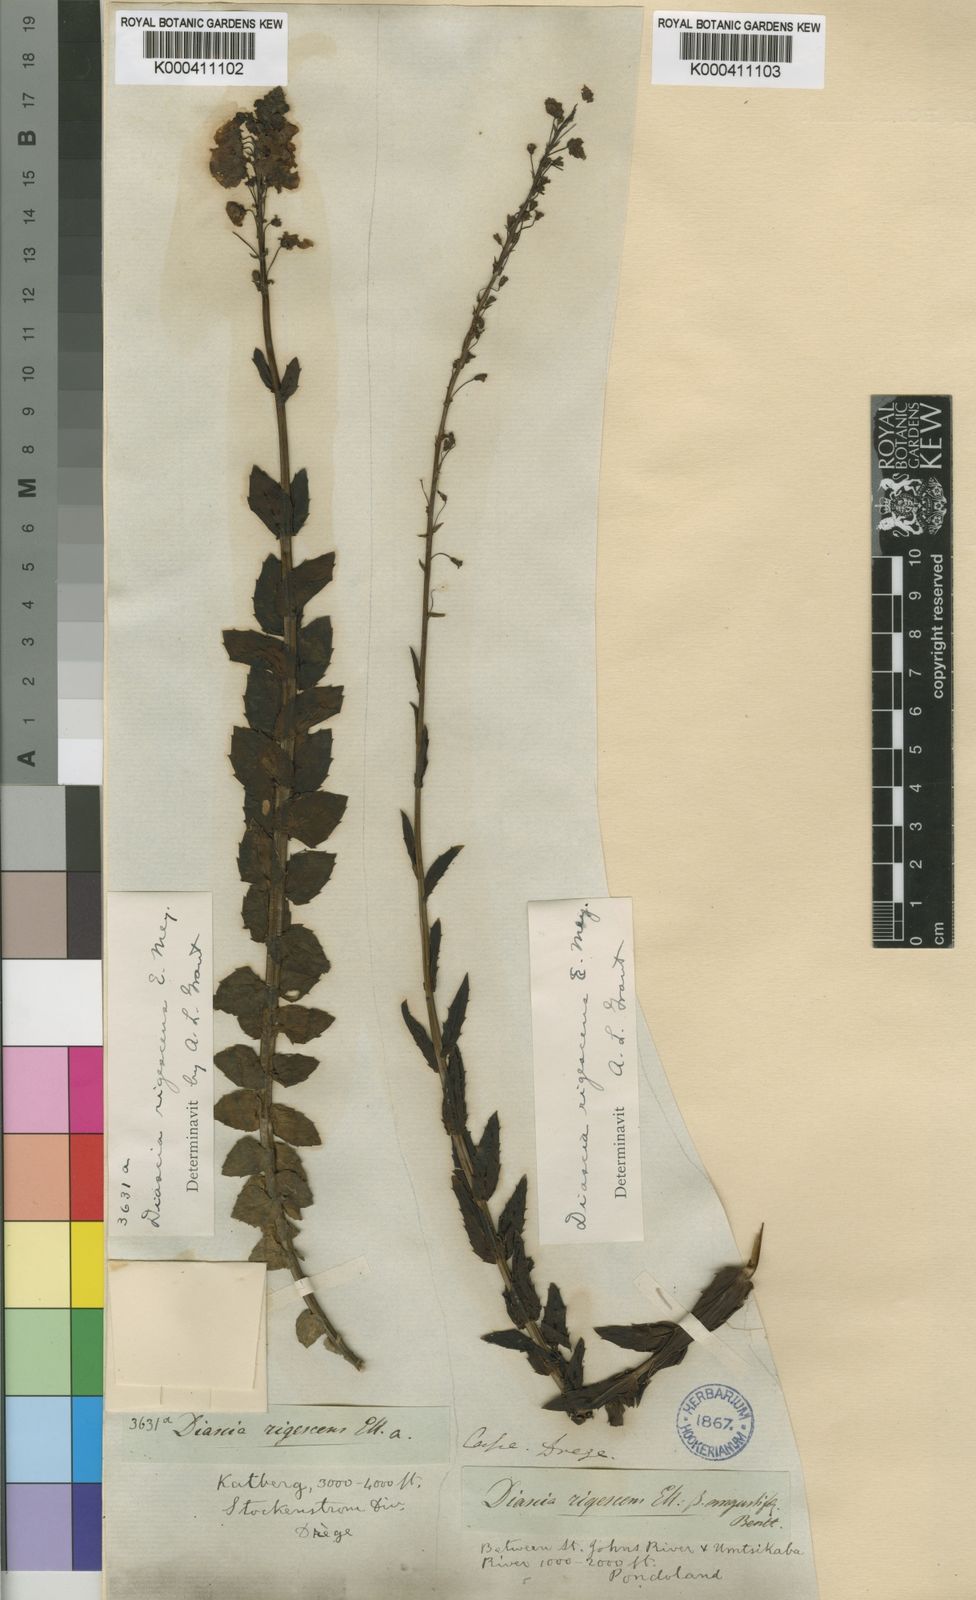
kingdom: Plantae
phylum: Tracheophyta
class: Magnoliopsida
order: Lamiales
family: Scrophulariaceae
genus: Diascia
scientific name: Diascia rigescens
